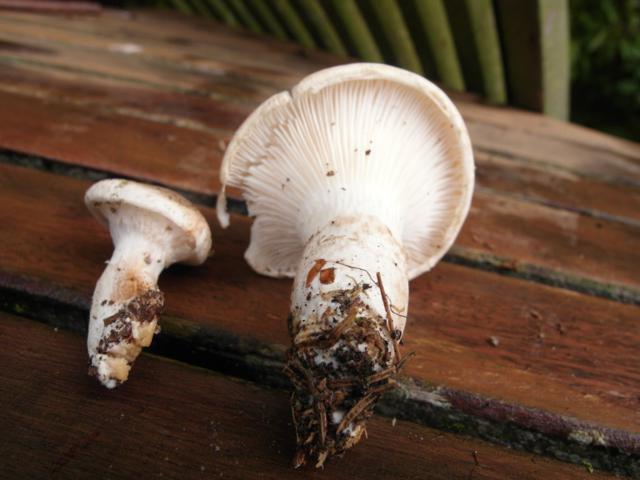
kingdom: Fungi
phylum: Basidiomycota
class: Agaricomycetes
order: Agaricales
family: Pleurotaceae
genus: Pleurotus
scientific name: Pleurotus dryinus
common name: korkagtig østershat
